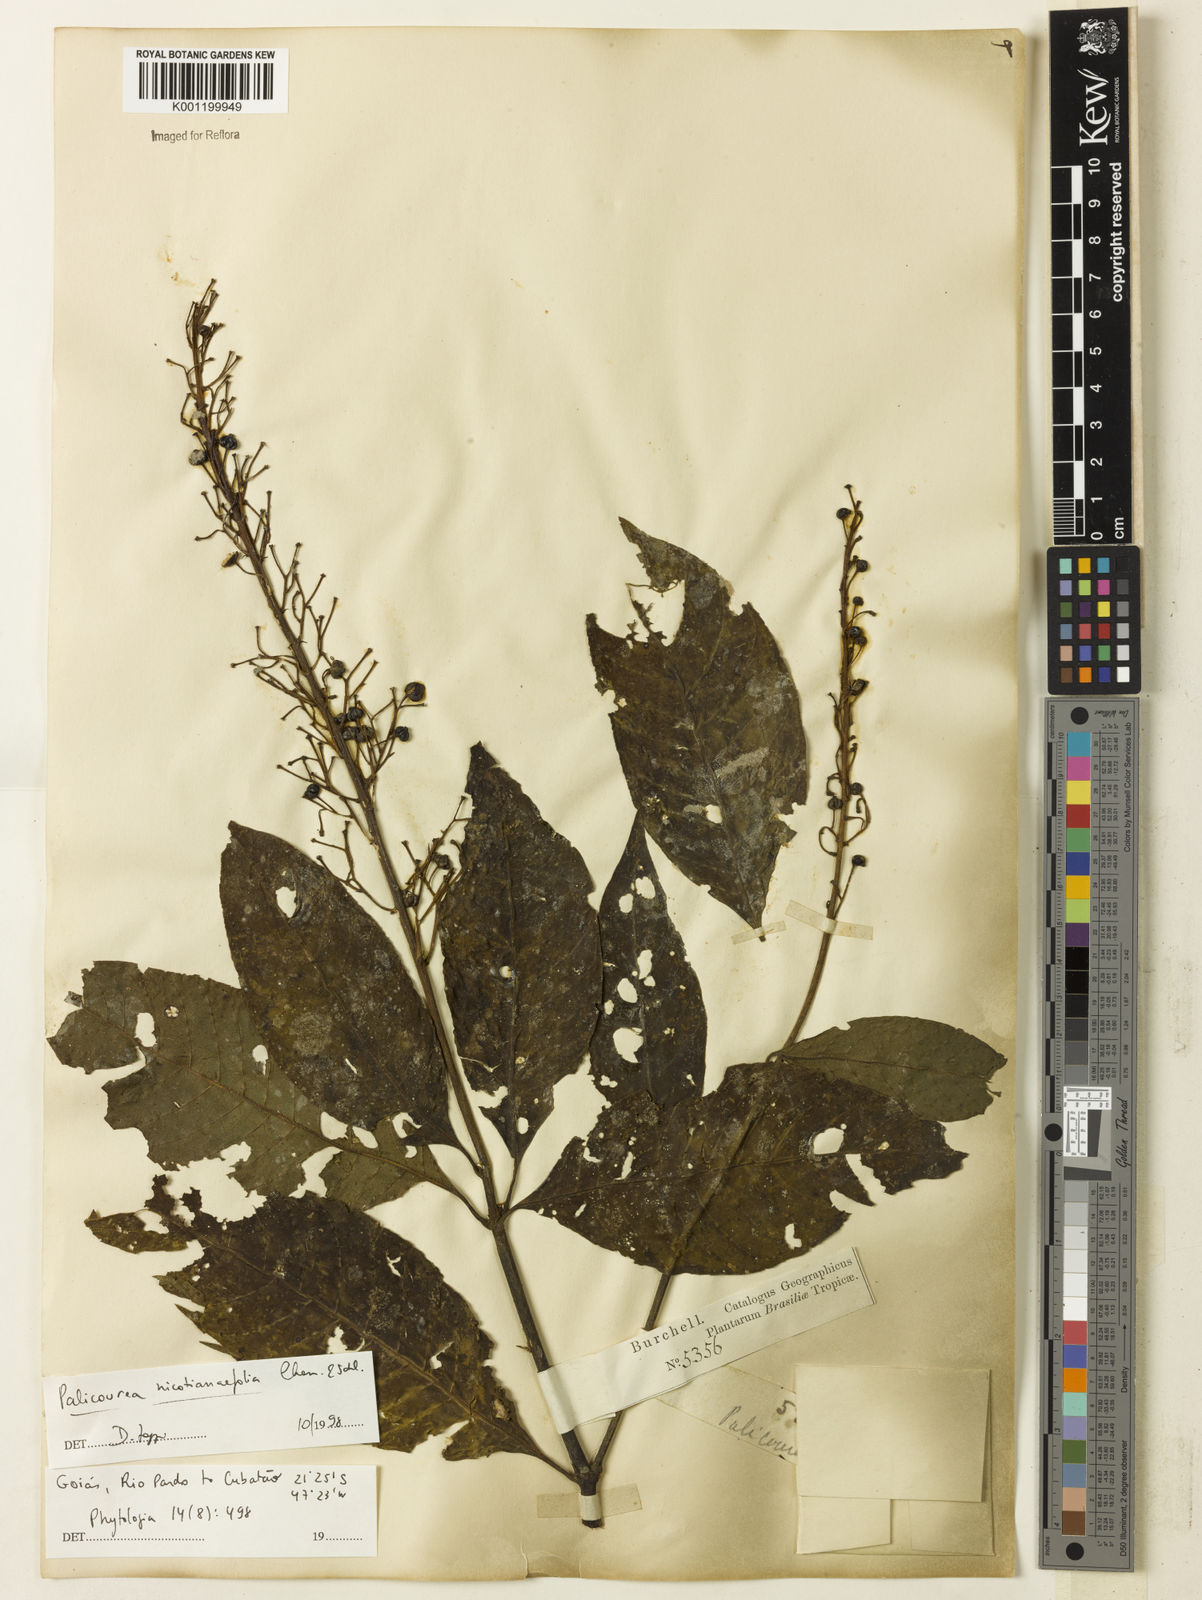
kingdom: Plantae
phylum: Tracheophyta
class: Magnoliopsida
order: Gentianales
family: Rubiaceae
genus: Palicourea
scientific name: Palicourea macrobotrys
